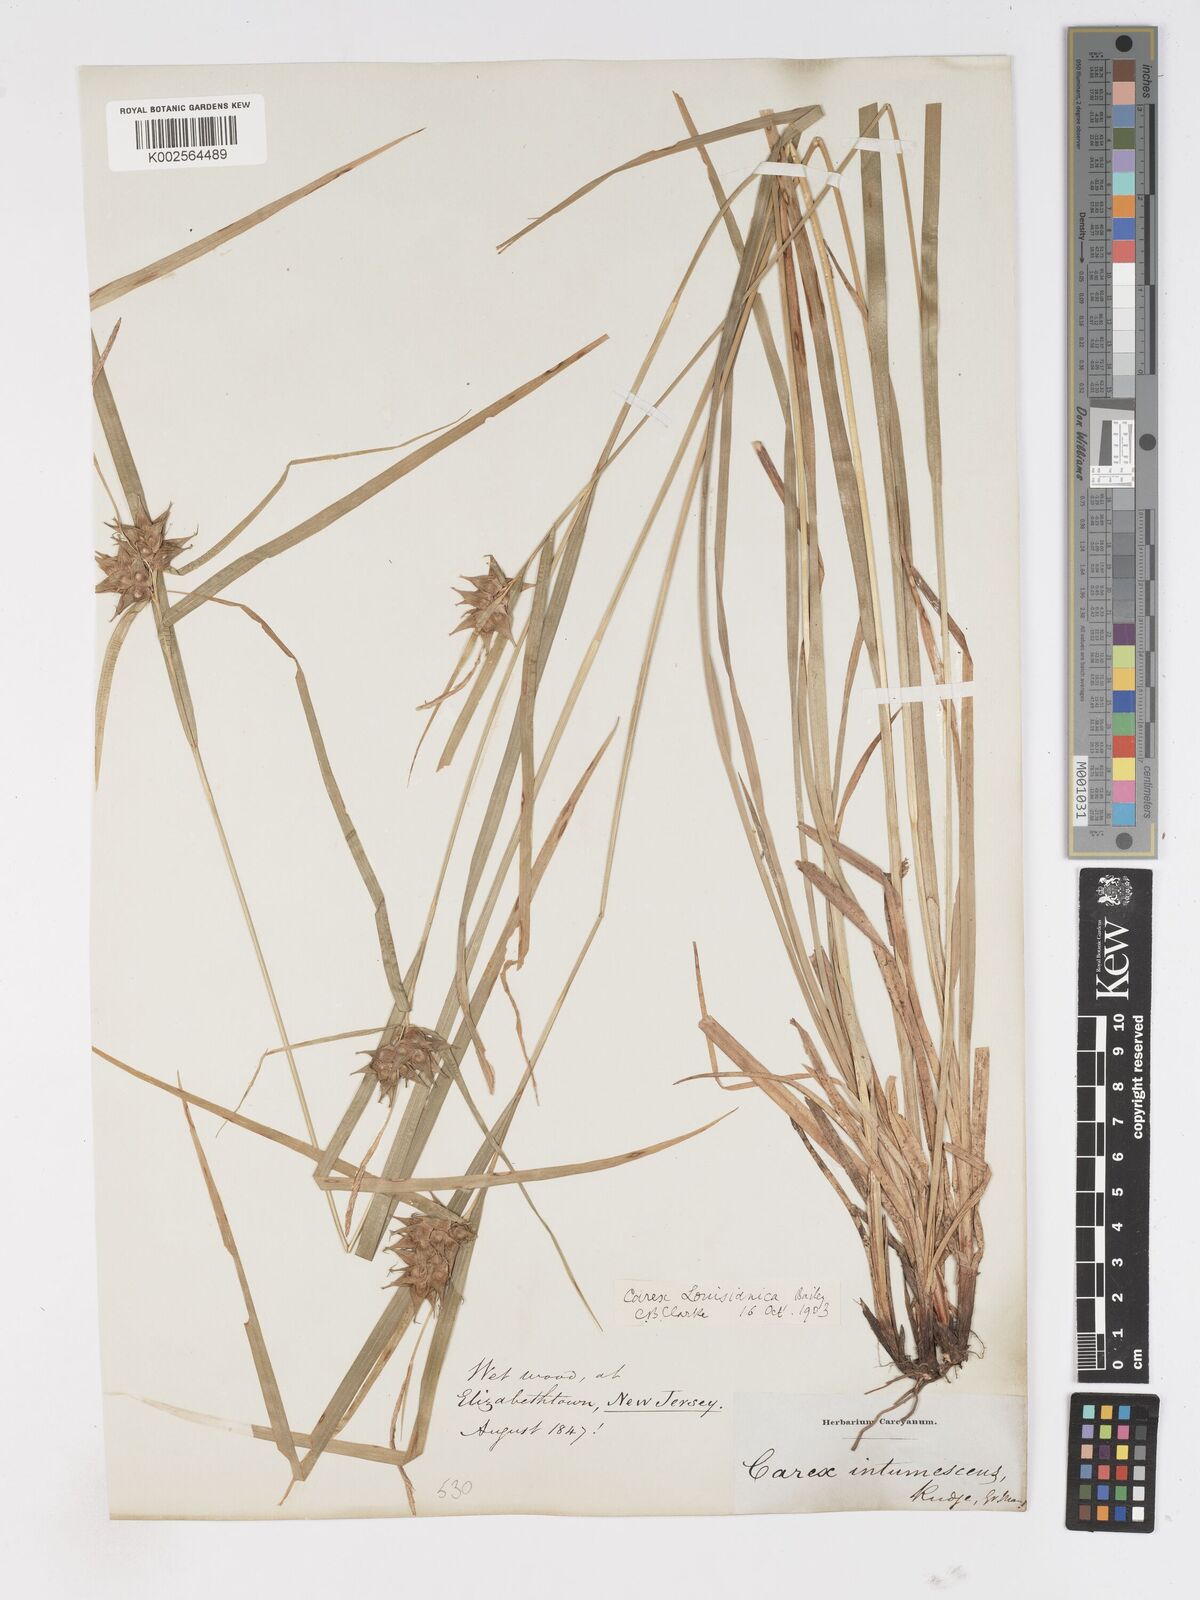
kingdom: Plantae
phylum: Tracheophyta
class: Liliopsida
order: Poales
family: Cyperaceae
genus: Carex
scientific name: Carex louisianica
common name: Louisiana sedge
